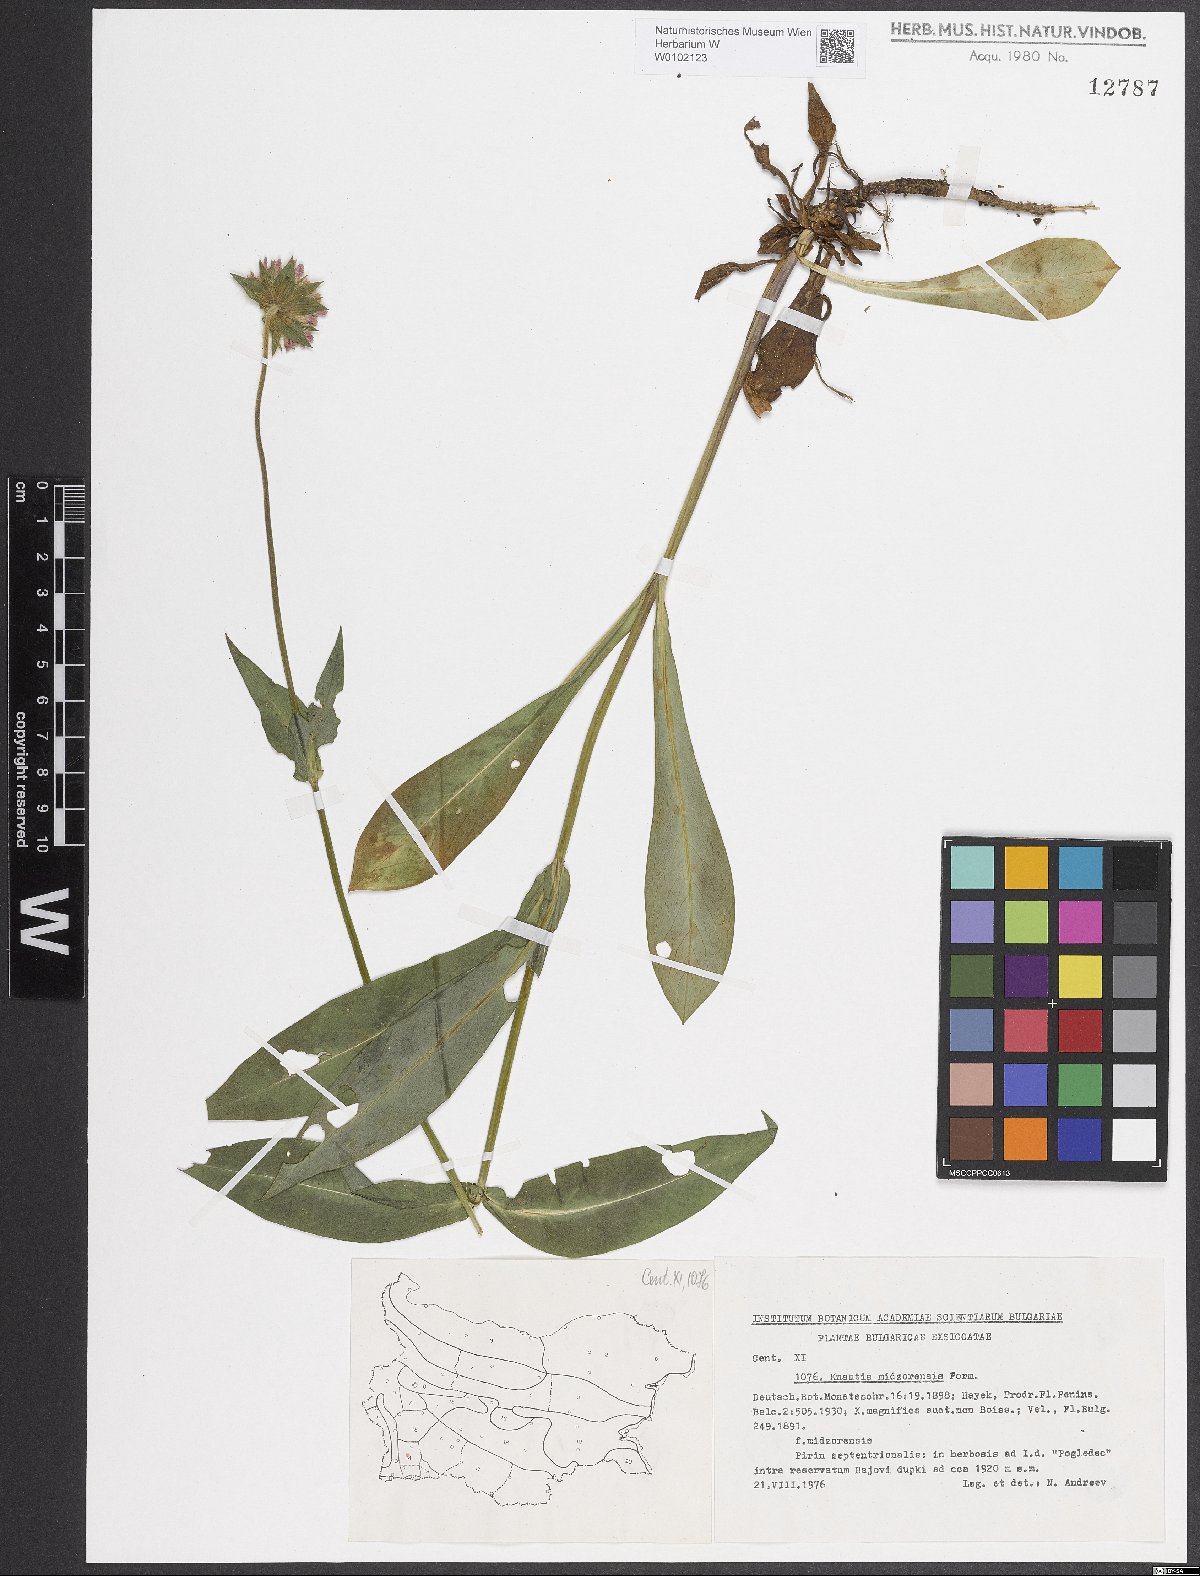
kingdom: Plantae
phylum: Tracheophyta
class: Magnoliopsida
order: Dipsacales
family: Caprifoliaceae
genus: Knautia
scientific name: Knautia midzorensis
